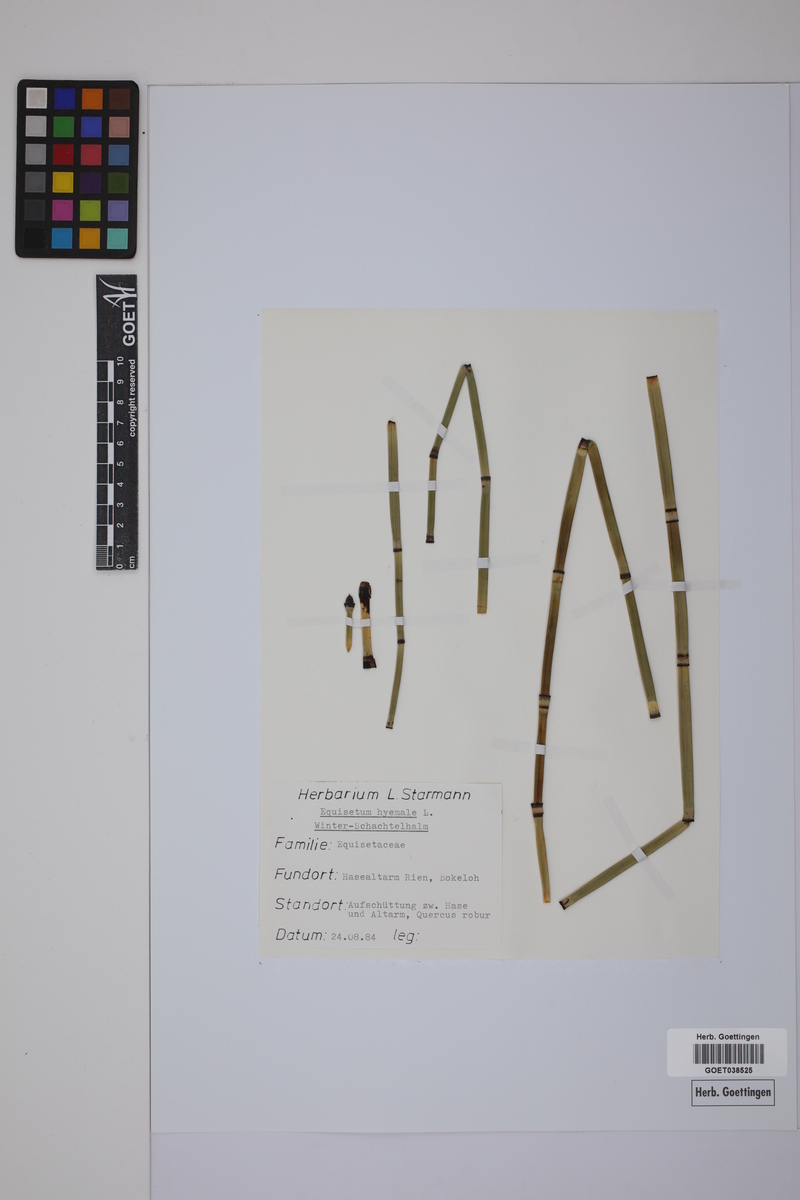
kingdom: Plantae
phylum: Tracheophyta
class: Polypodiopsida
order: Equisetales
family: Equisetaceae
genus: Equisetum
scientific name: Equisetum hyemale
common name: Rough horsetail
